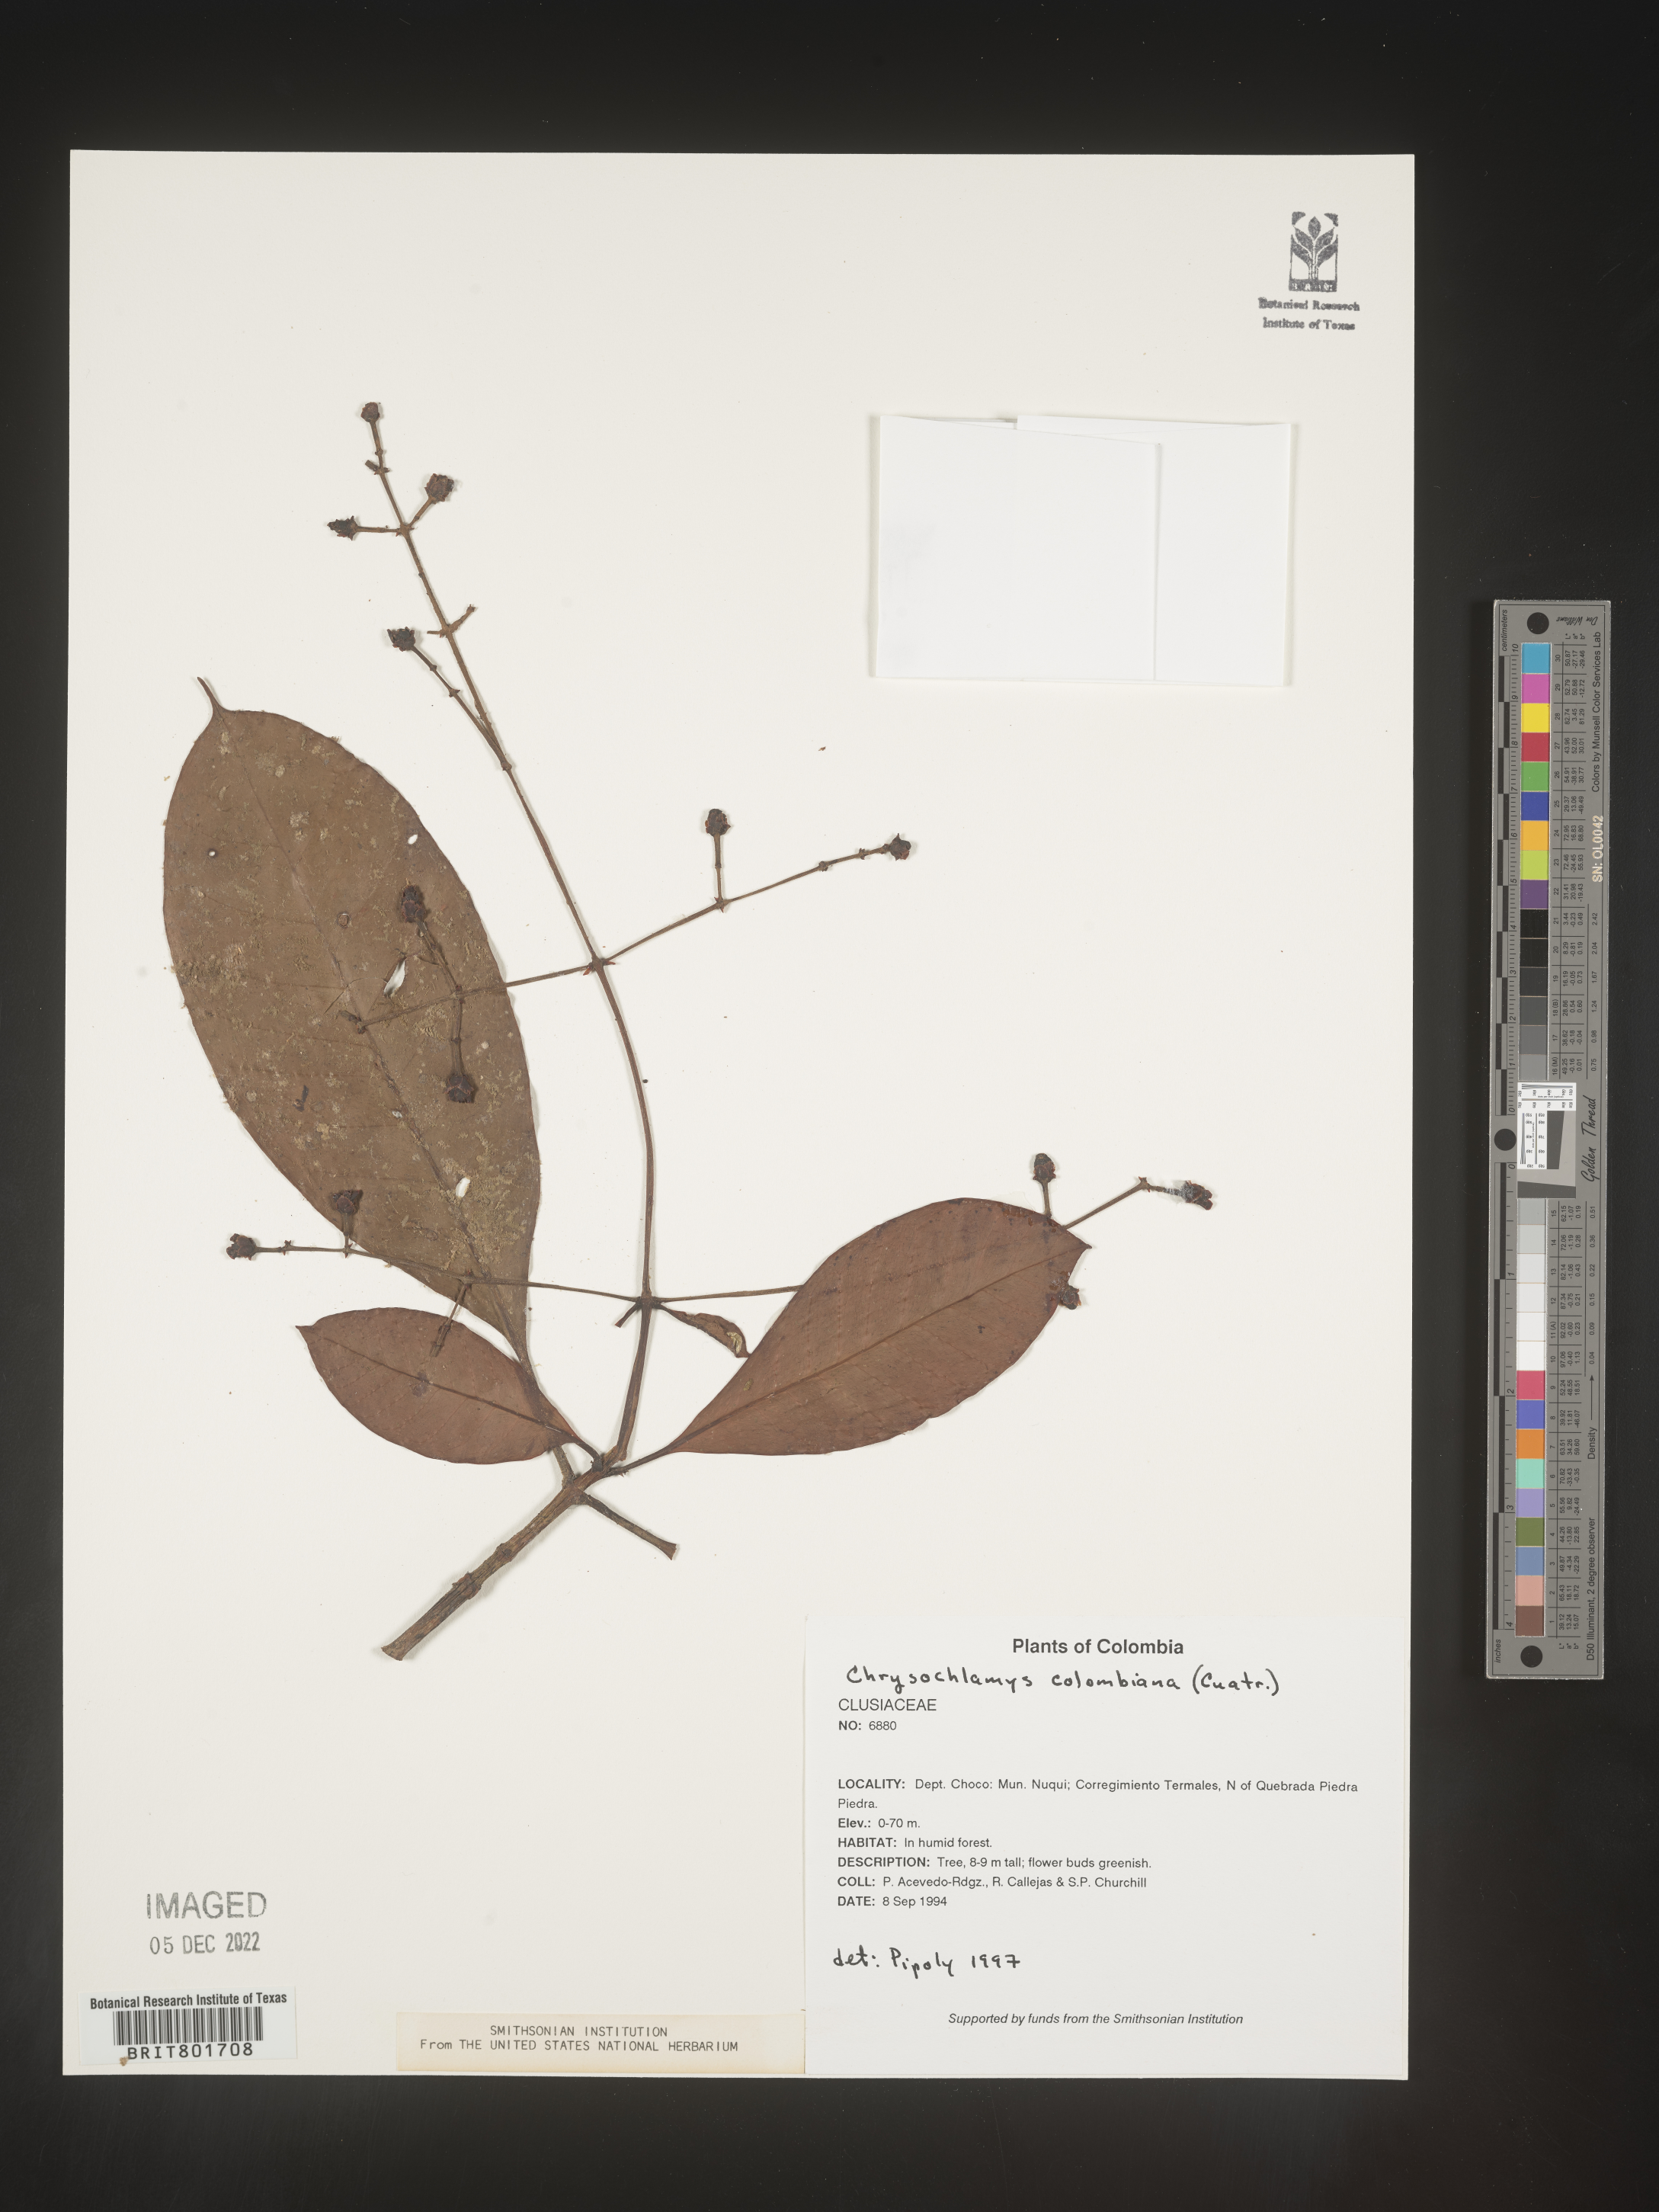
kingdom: Plantae
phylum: Tracheophyta
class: Magnoliopsida
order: Malpighiales
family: Clusiaceae
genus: Chrysochlamys
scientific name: Chrysochlamys
